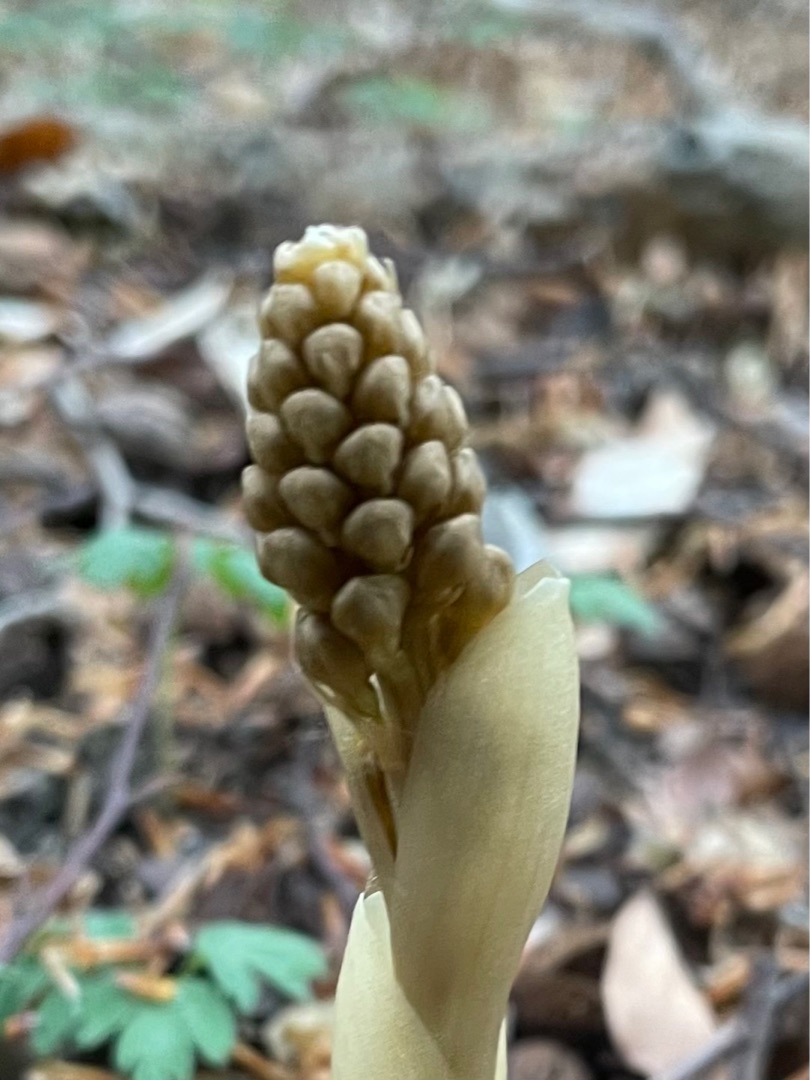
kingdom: Plantae
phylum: Tracheophyta
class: Liliopsida
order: Asparagales
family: Orchidaceae
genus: Neottia
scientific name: Neottia nidus-avis
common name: Rederod
